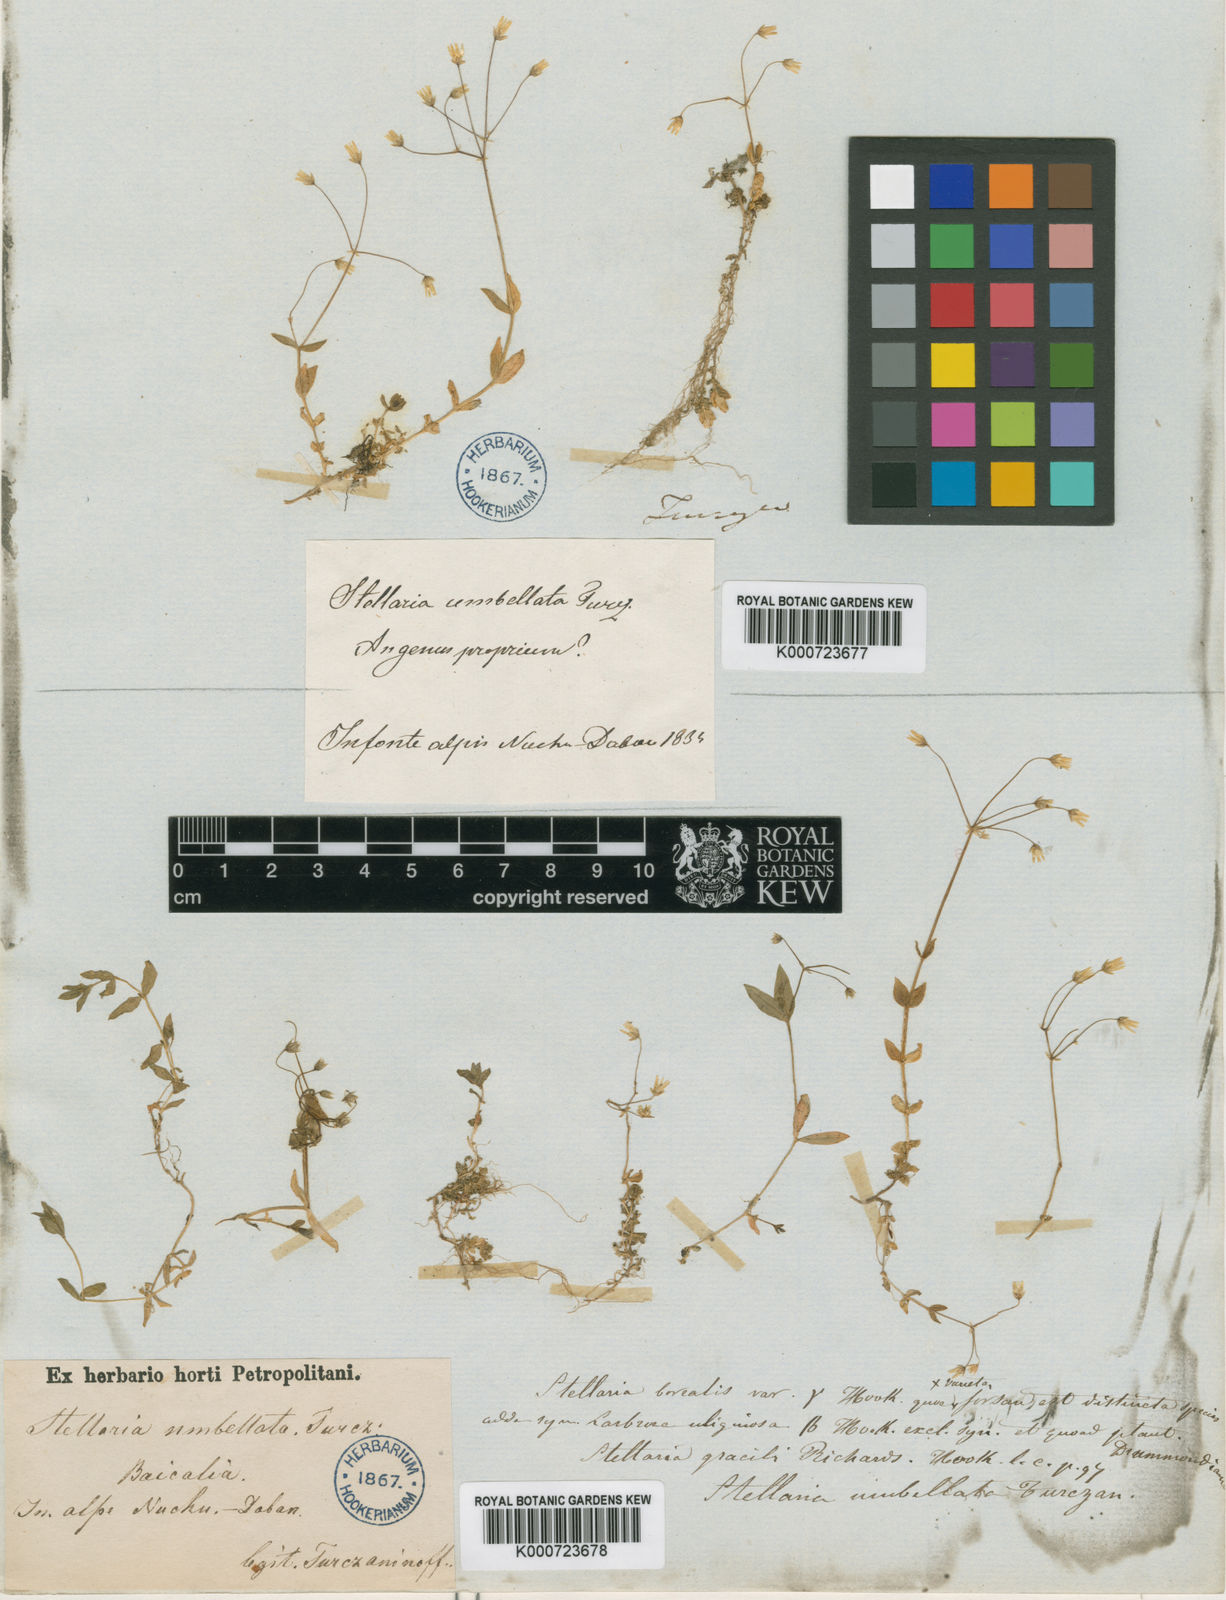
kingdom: Plantae
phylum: Tracheophyta
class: Magnoliopsida
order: Caryophyllales
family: Caryophyllaceae
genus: Stellaria
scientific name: Stellaria
